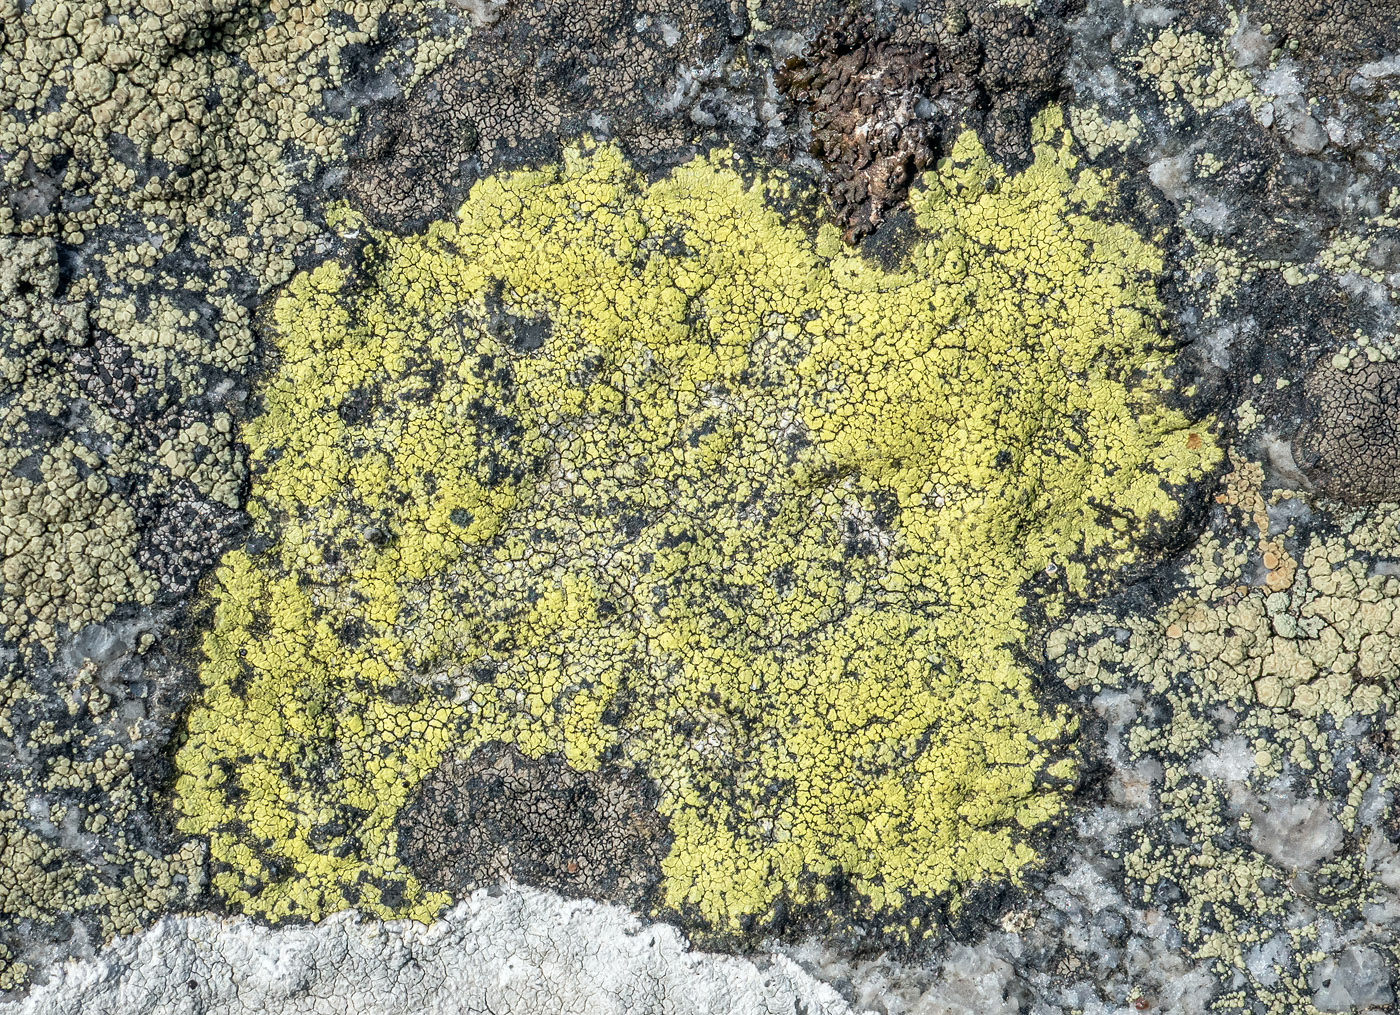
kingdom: Fungi
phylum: Ascomycota
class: Lecanoromycetes
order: Rhizocarpales
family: Rhizocarpaceae
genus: Rhizocarpon
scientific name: Rhizocarpon geographicum
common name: gulgrøn landkortlav
